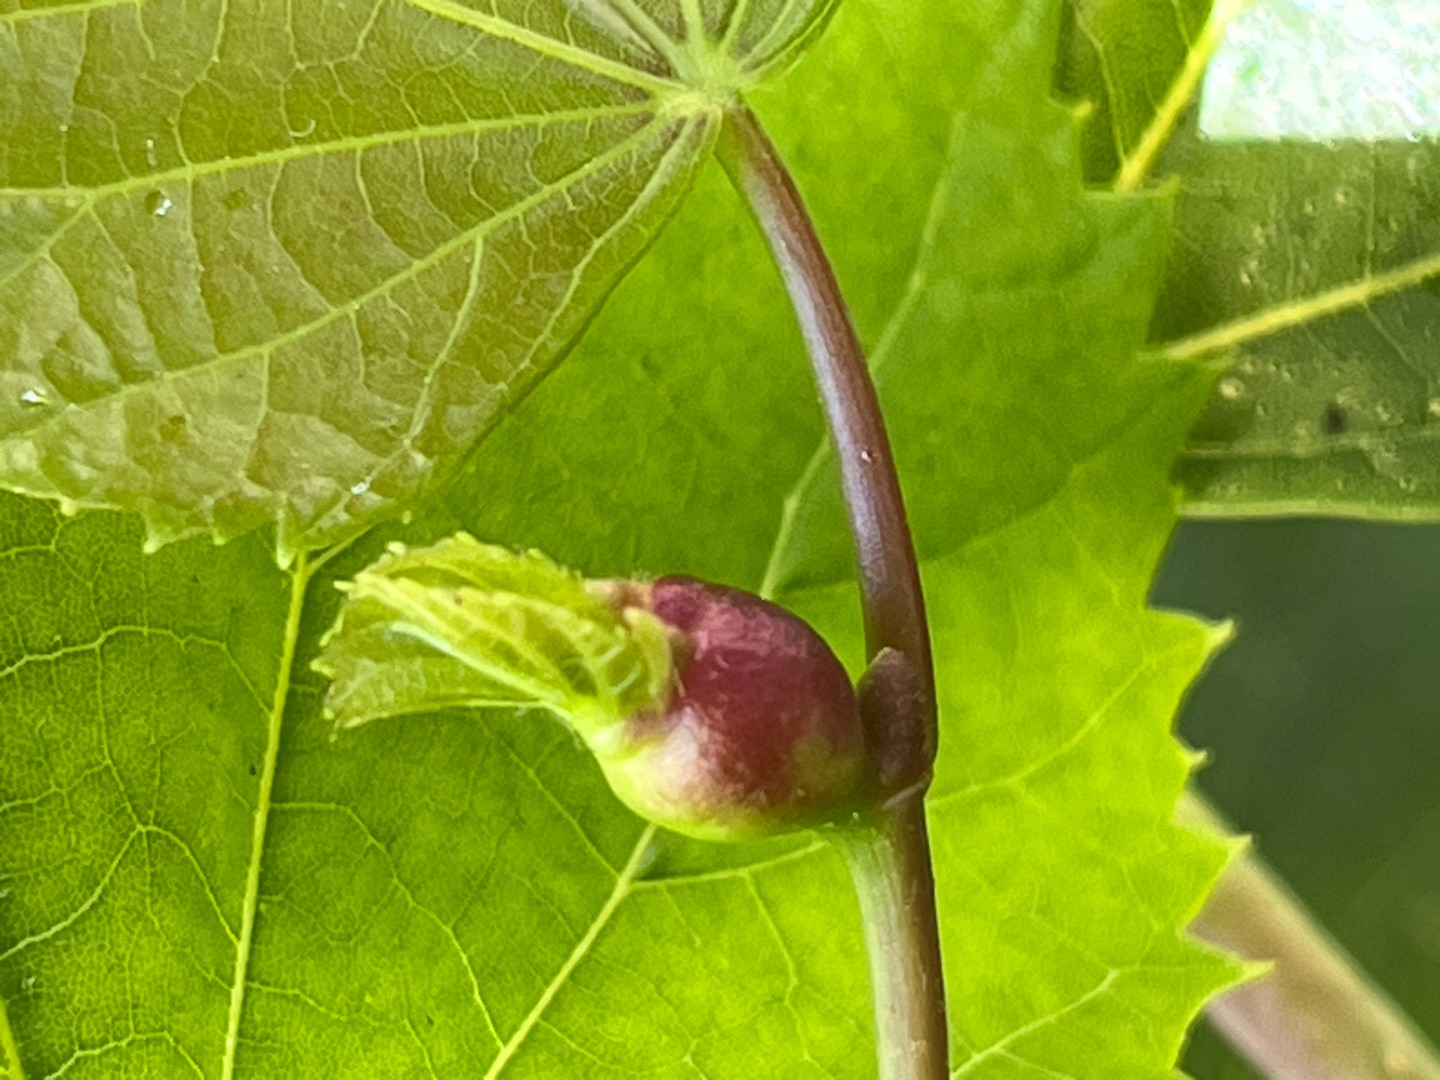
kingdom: Animalia
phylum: Arthropoda
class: Insecta
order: Diptera
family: Cecidomyiidae
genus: Contarinia
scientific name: Contarinia tiliarum
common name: Springende lindegalmyg
